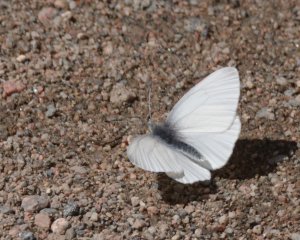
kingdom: Animalia
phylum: Arthropoda
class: Insecta
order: Lepidoptera
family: Pieridae
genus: Pieris
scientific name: Pieris virginiensis
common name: West Virginia White
